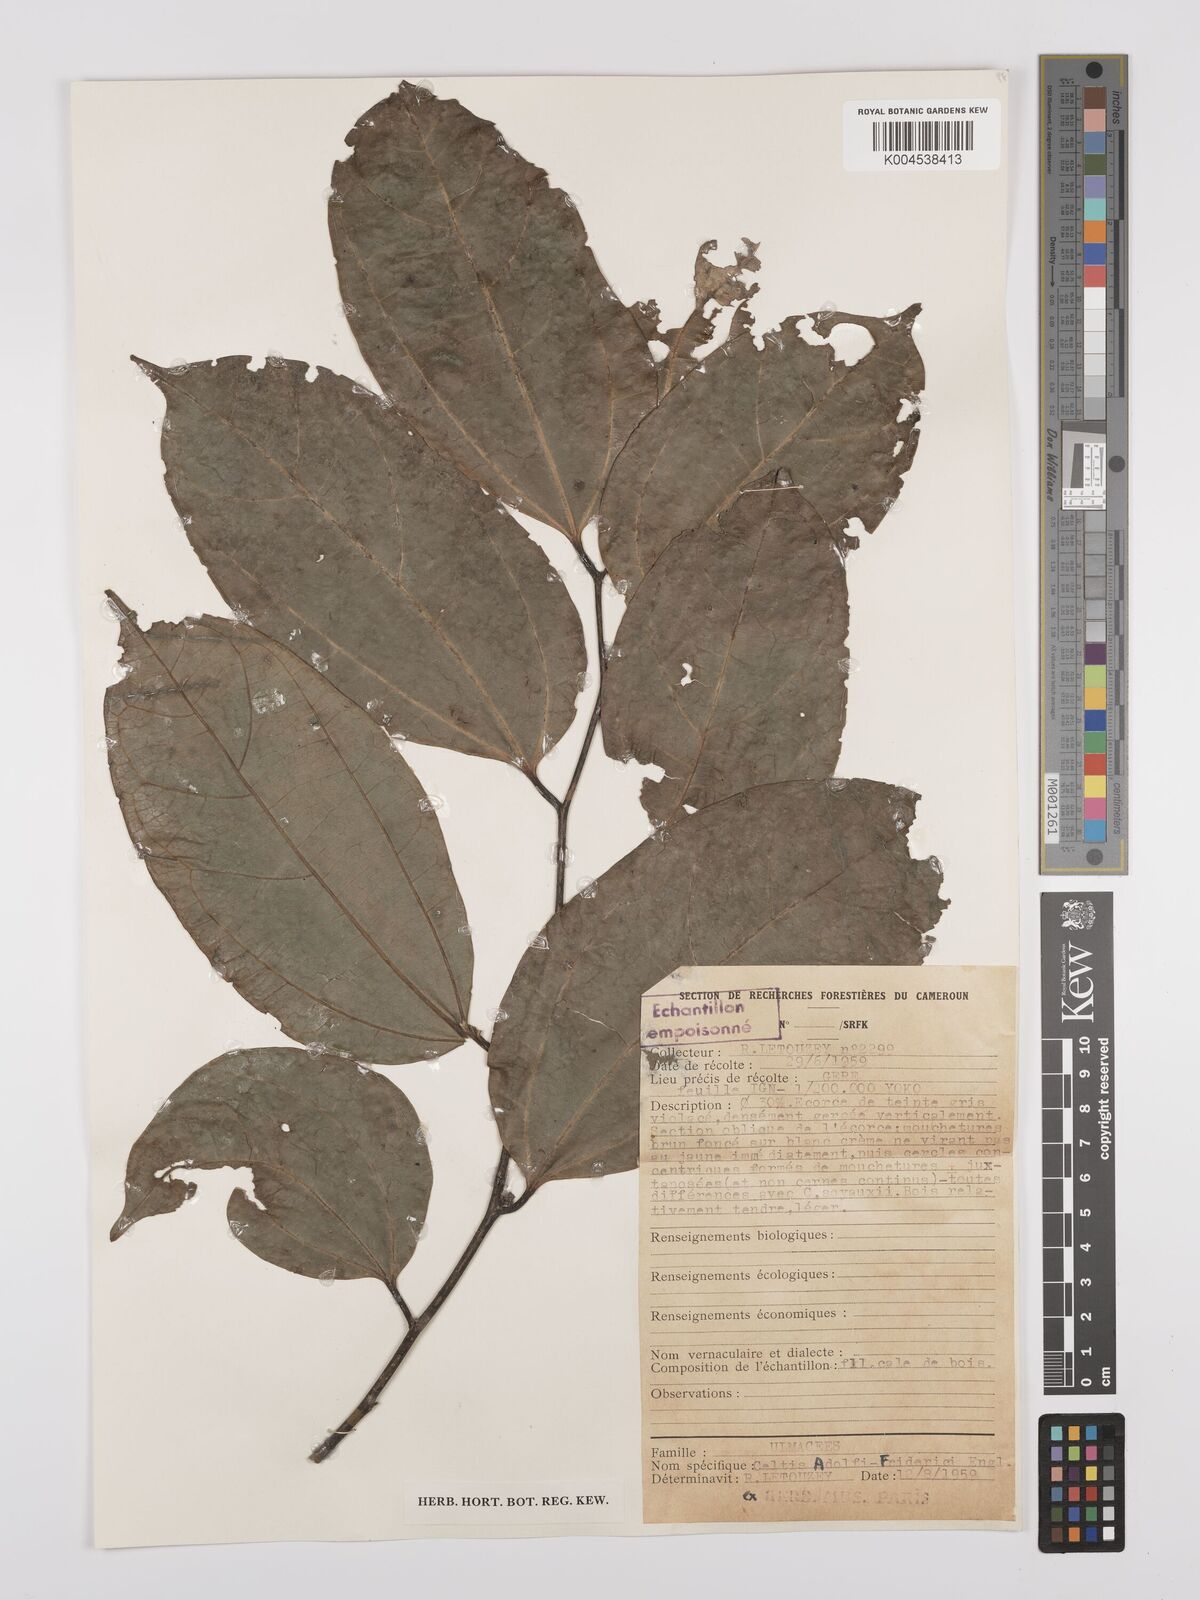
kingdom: Plantae
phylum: Tracheophyta
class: Magnoliopsida
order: Rosales
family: Cannabaceae
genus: Celtis
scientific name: Celtis adolfi-friderici
